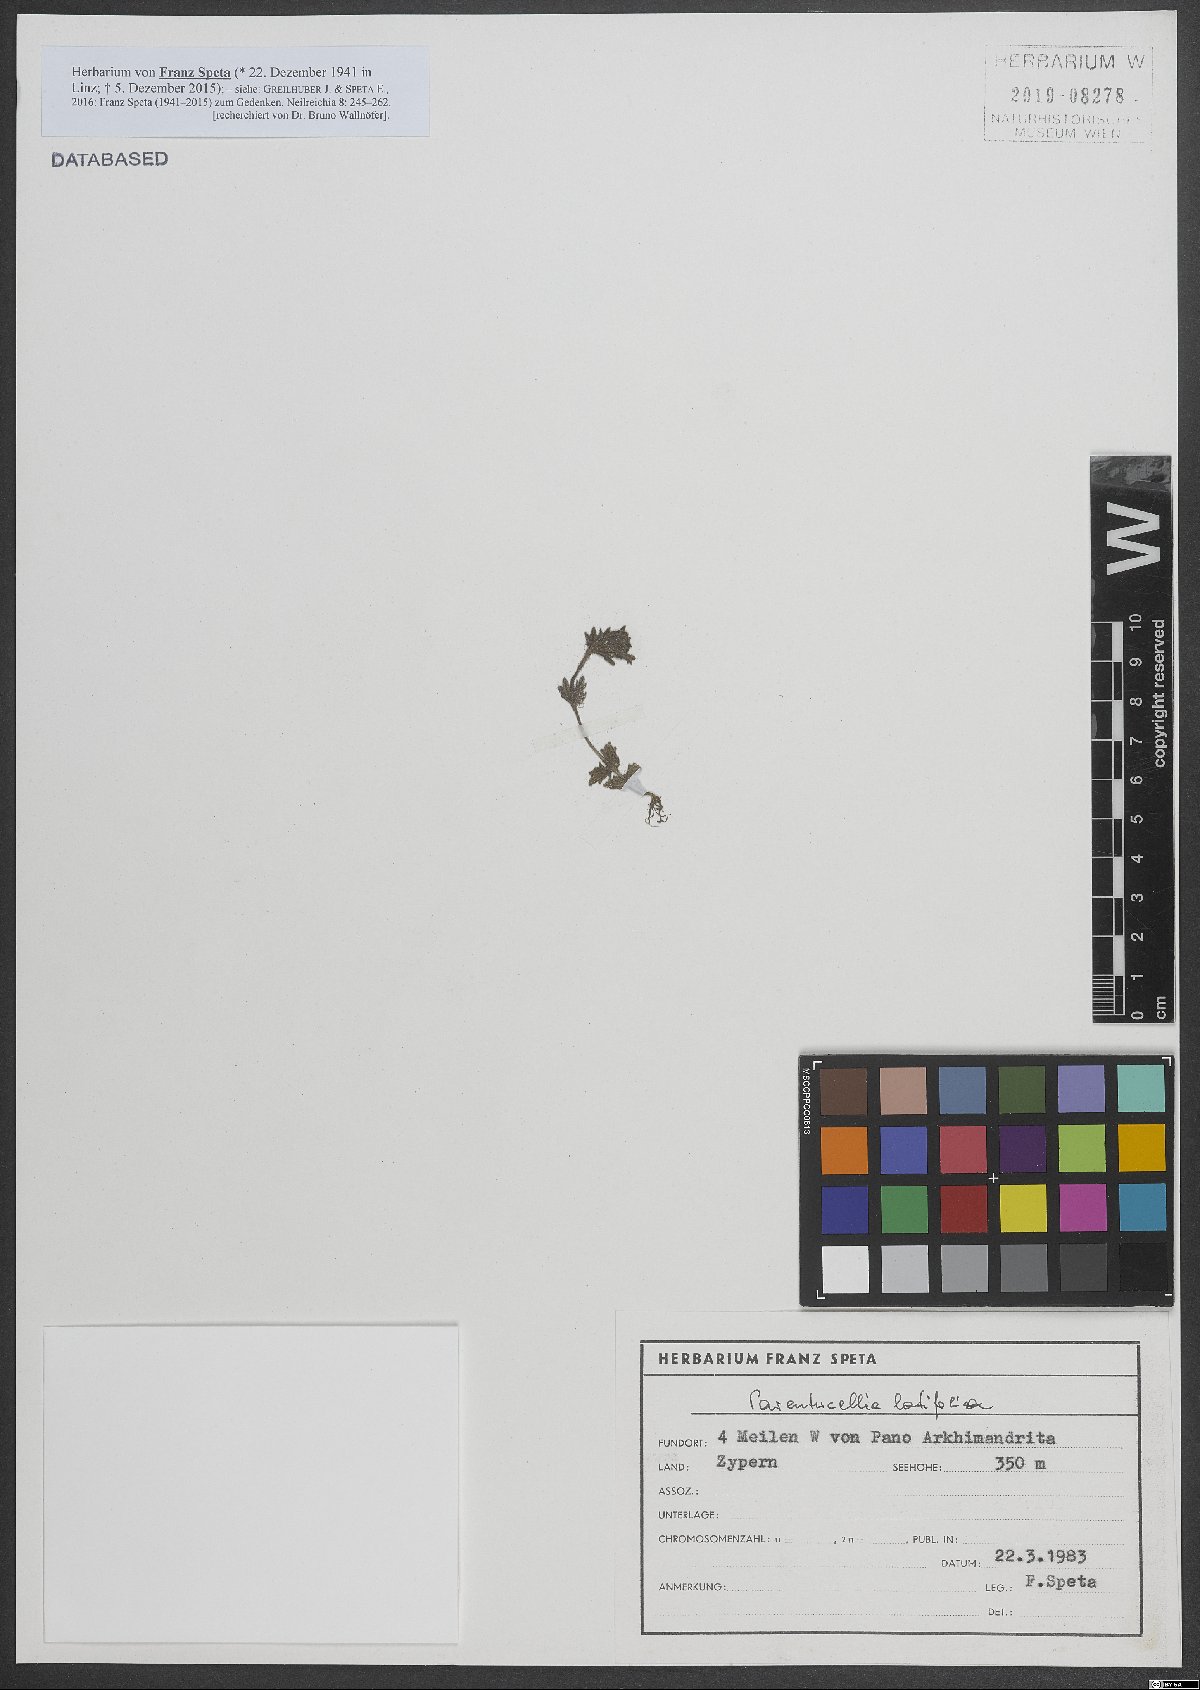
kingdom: Plantae
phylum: Tracheophyta
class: Magnoliopsida
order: Lamiales
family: Orobanchaceae
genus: Parentucellia
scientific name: Parentucellia latifolia
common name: Broadleaf glandweed
